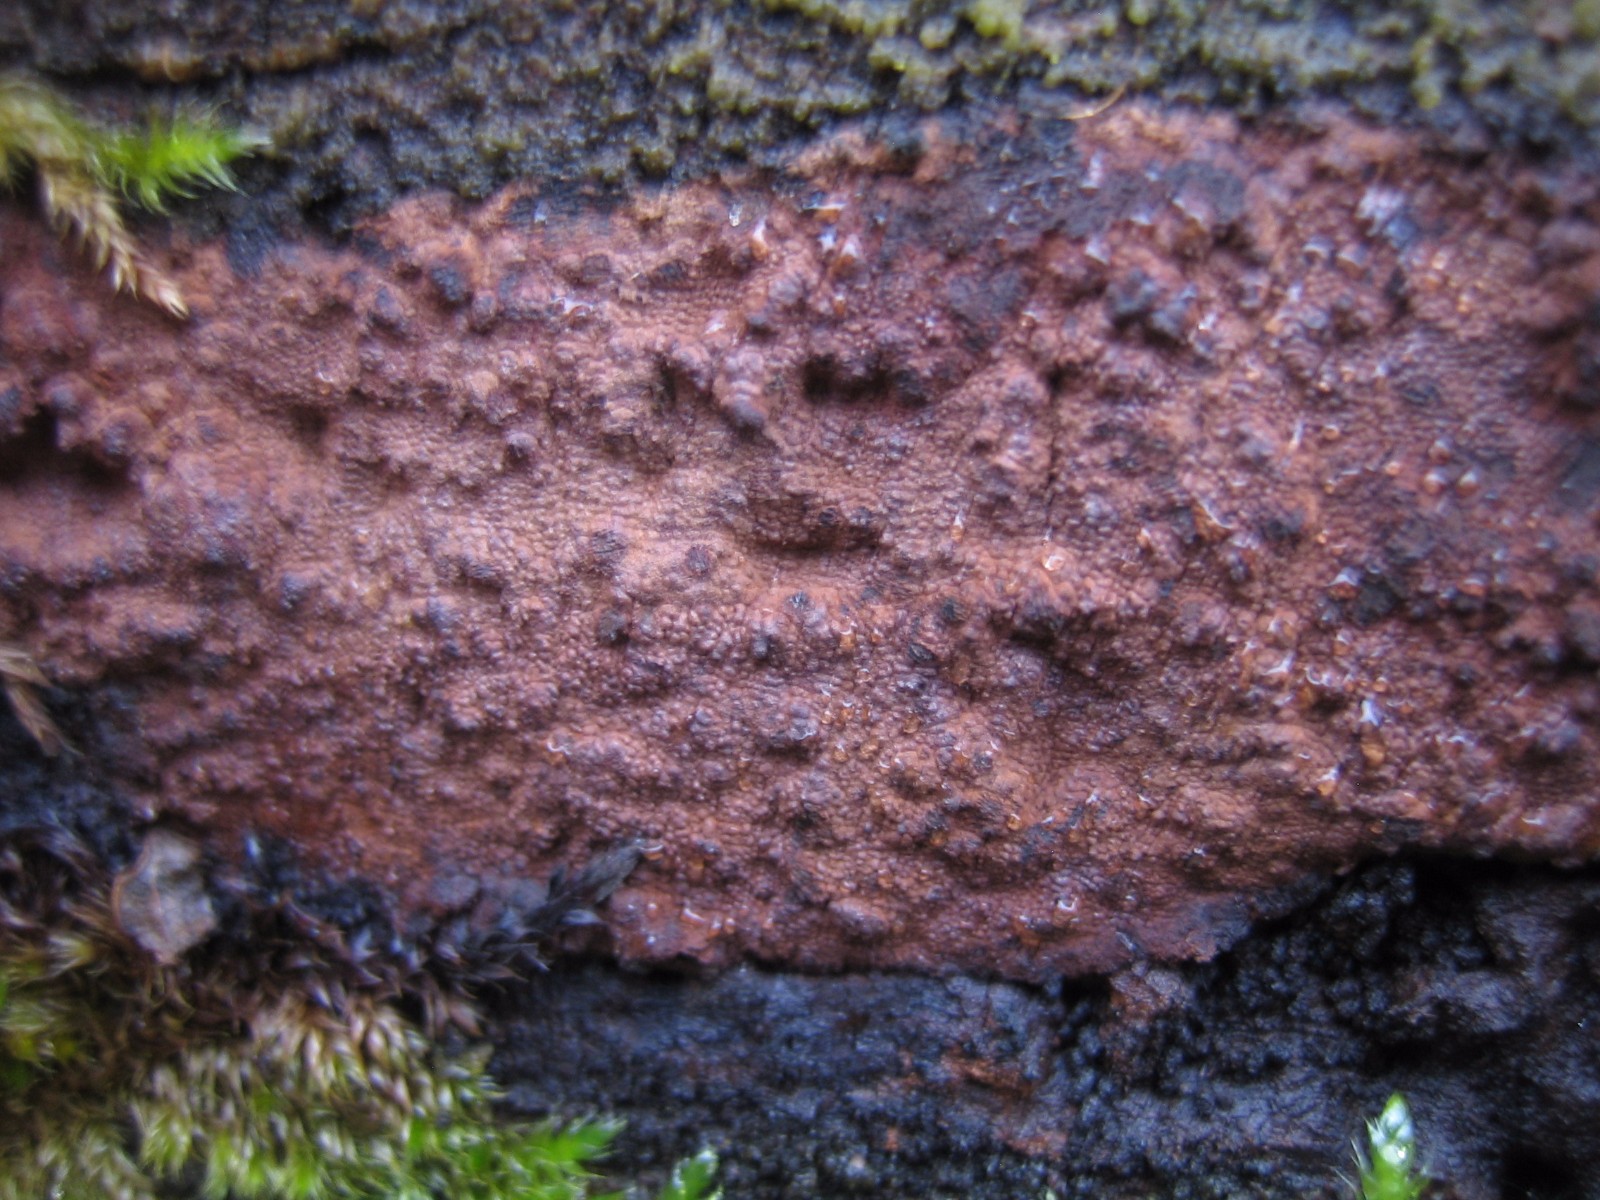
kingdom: Fungi
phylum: Basidiomycota
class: Agaricomycetes
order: Corticiales
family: Corticiaceae
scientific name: Corticiaceae
